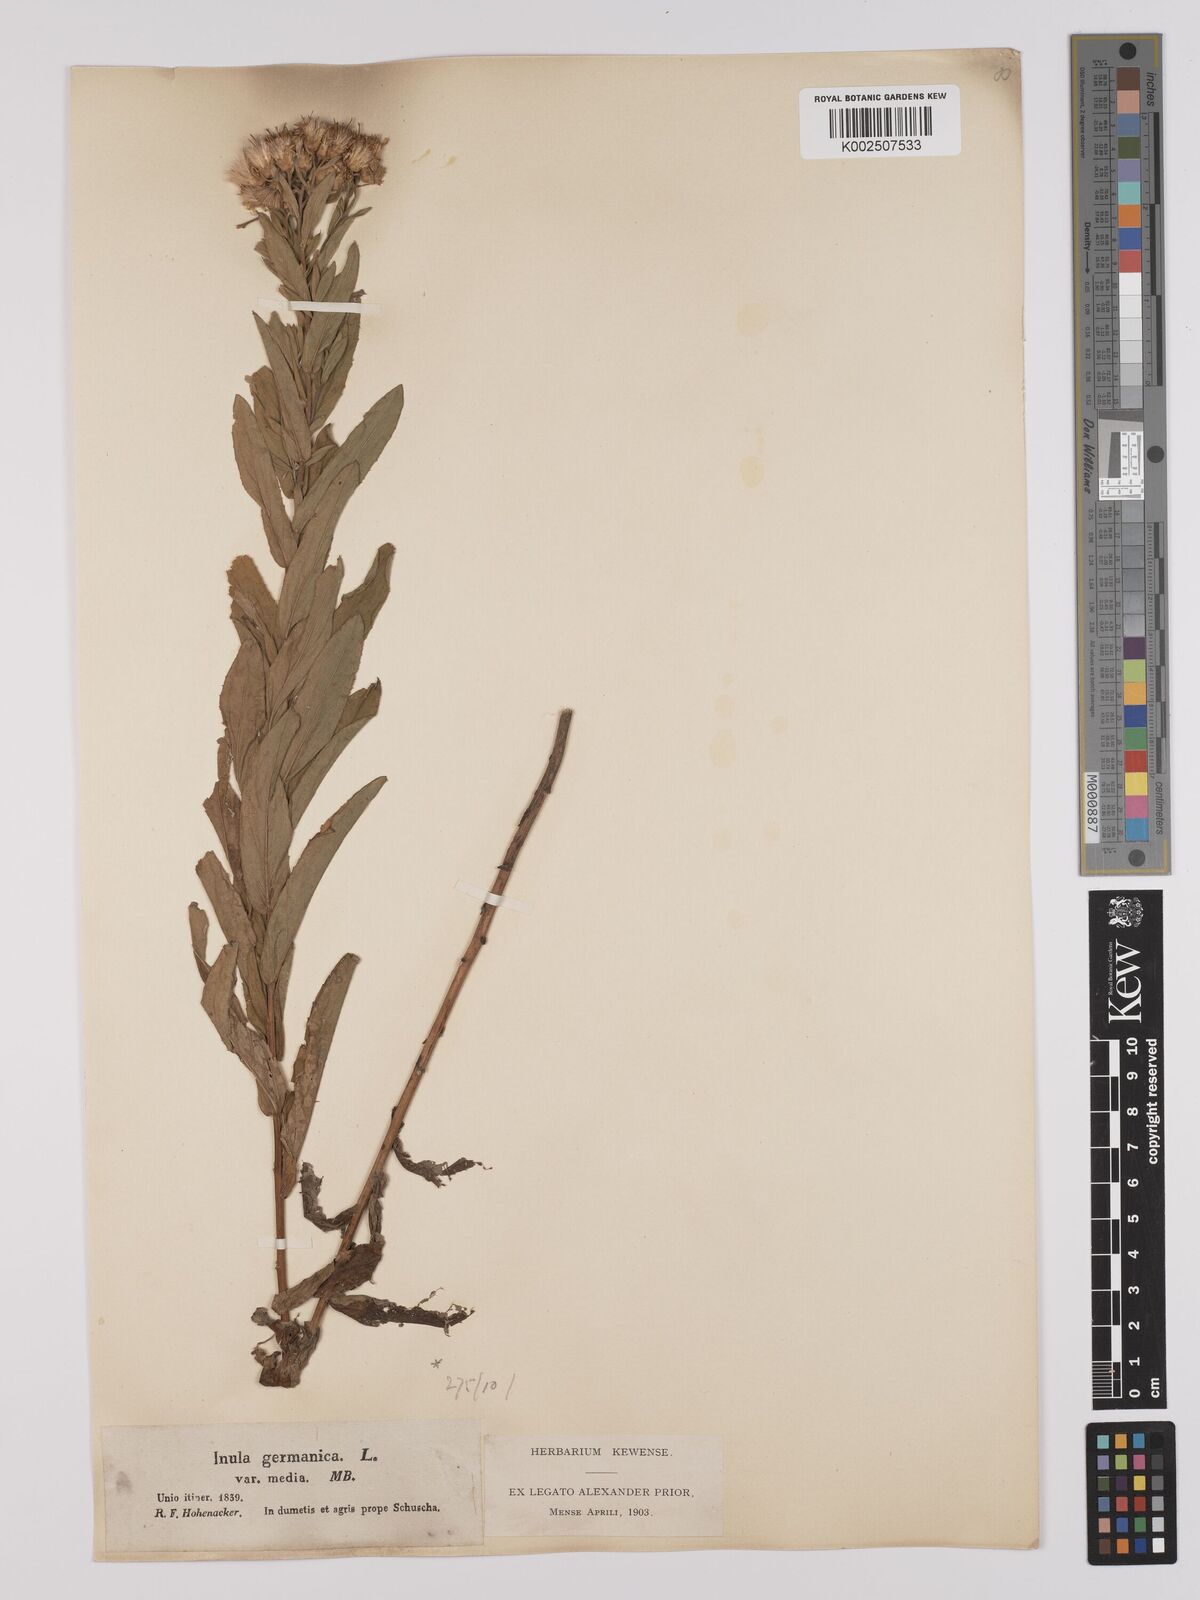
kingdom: Plantae
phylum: Tracheophyta
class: Magnoliopsida
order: Asterales
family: Asteraceae
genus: Pentanema
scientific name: Pentanema germanicum
